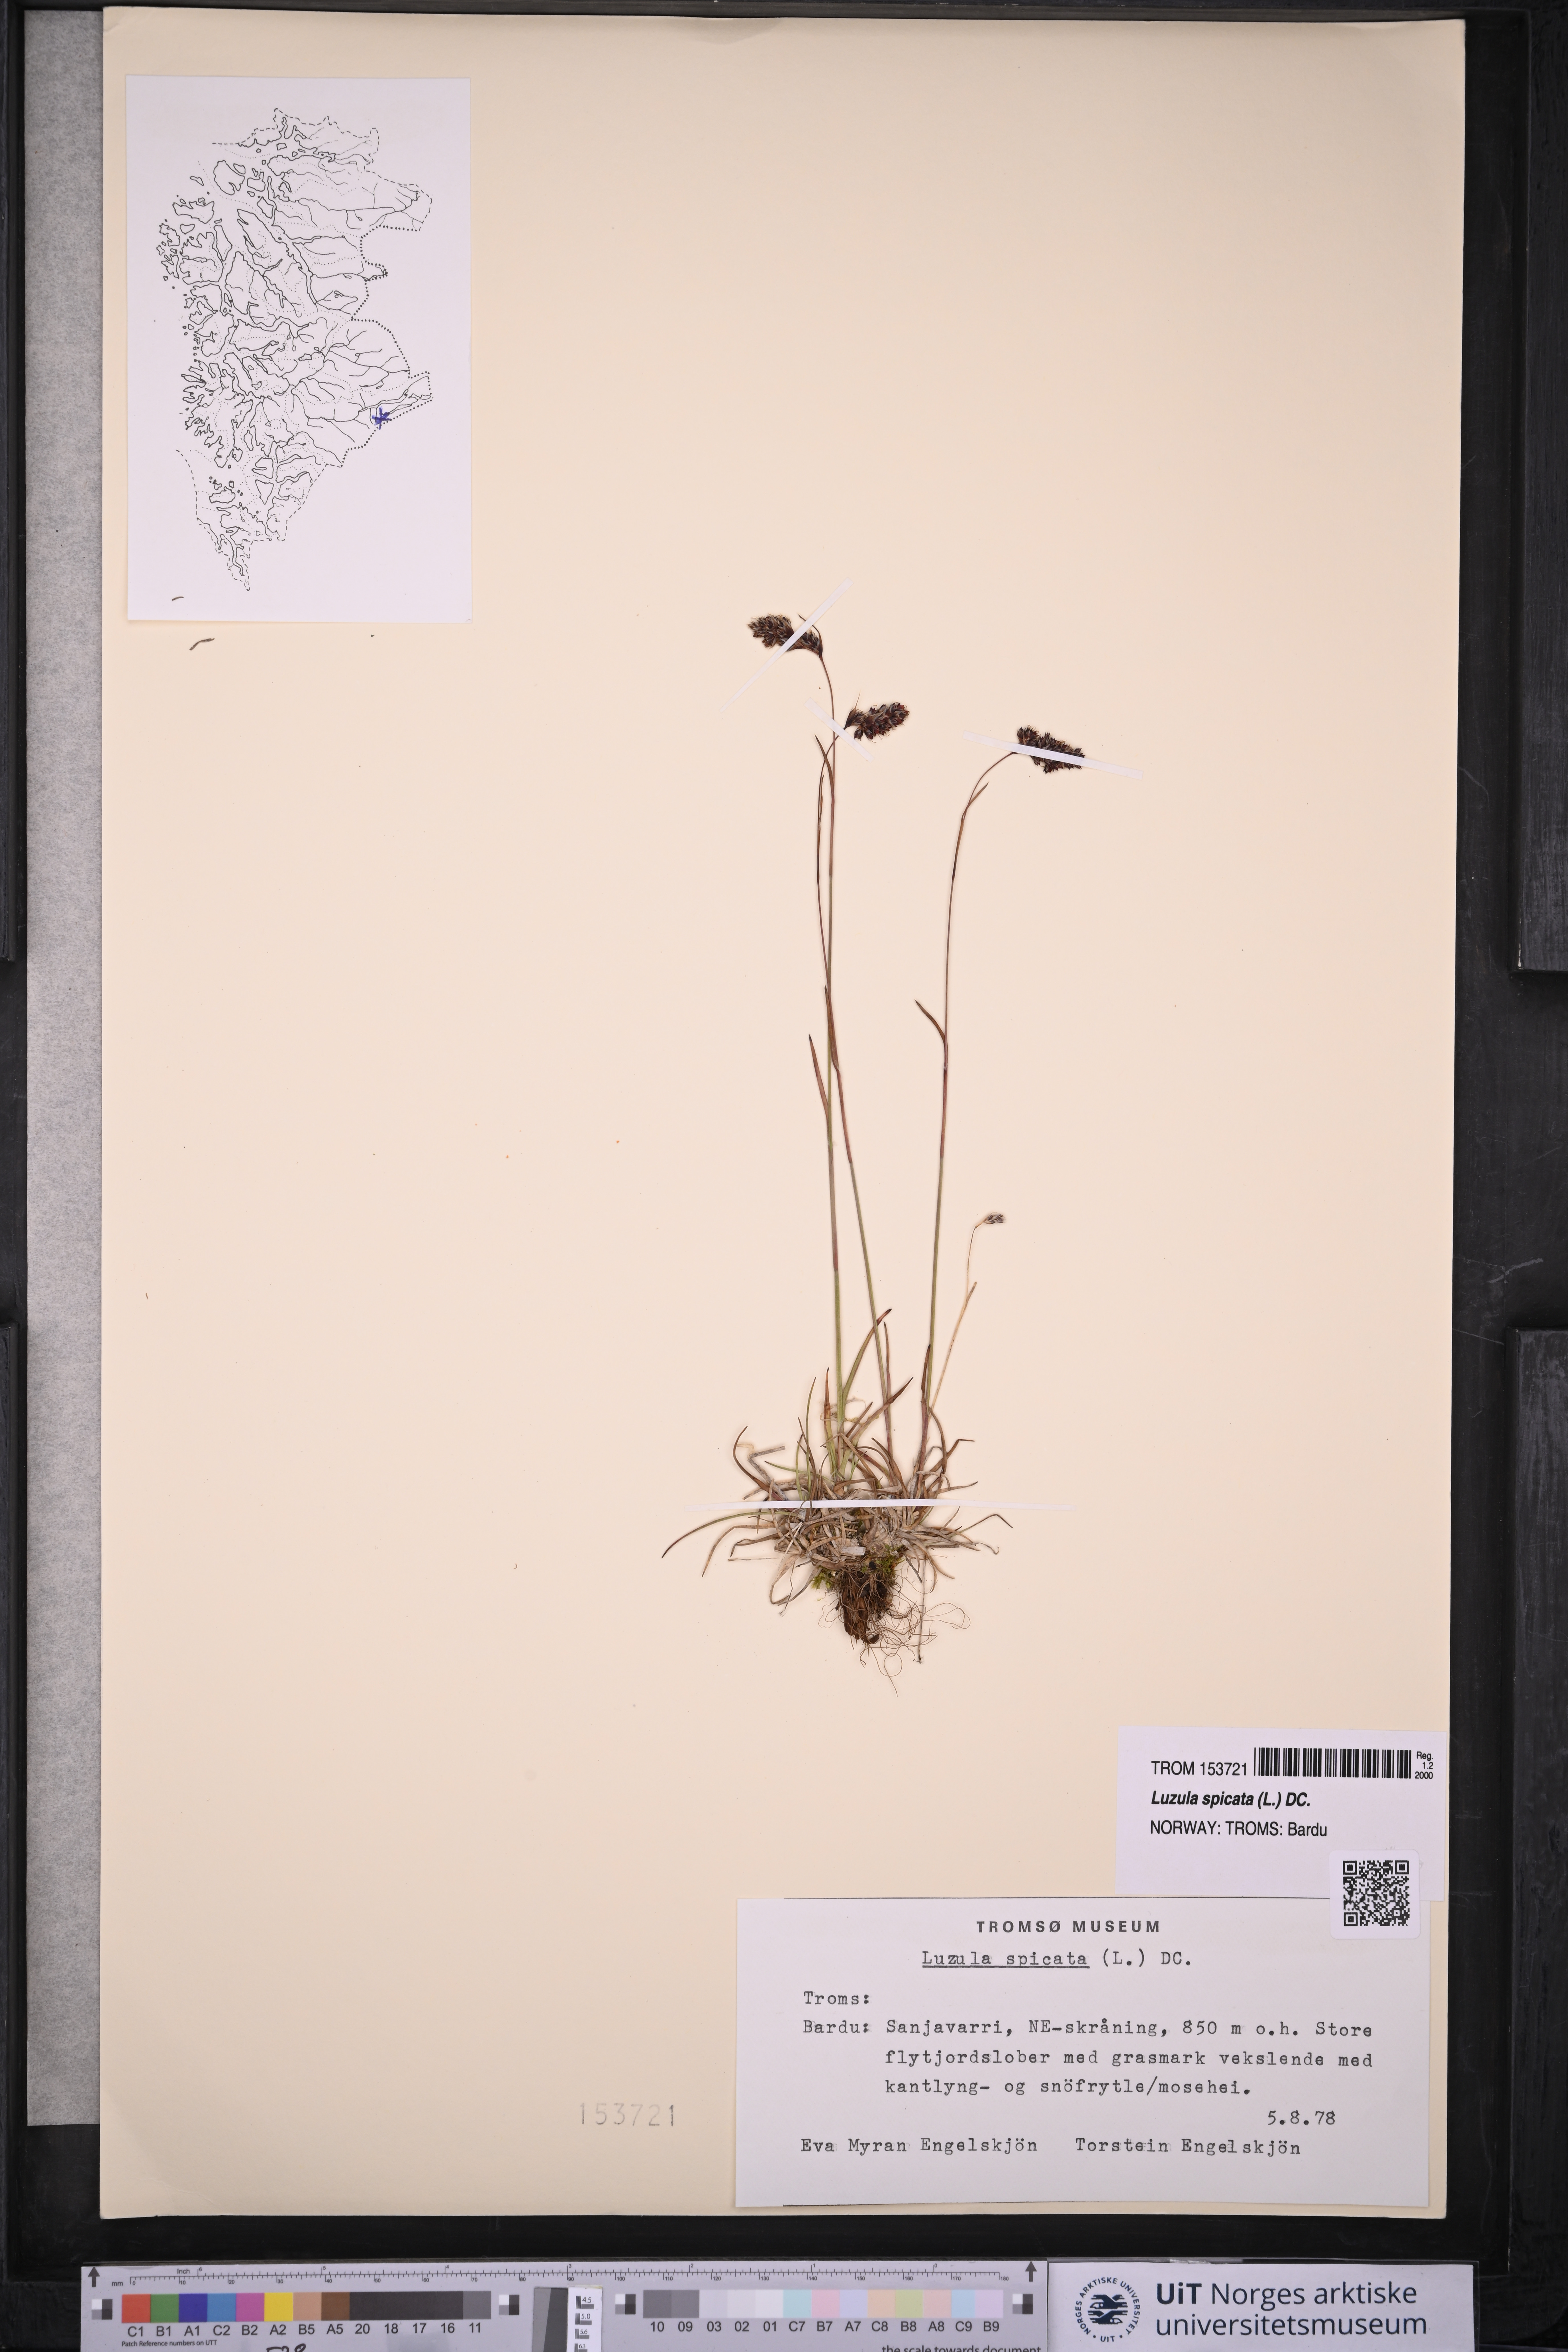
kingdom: Plantae
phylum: Tracheophyta
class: Liliopsida
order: Poales
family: Juncaceae
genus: Luzula
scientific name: Luzula spicata
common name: Spiked wood-rush
